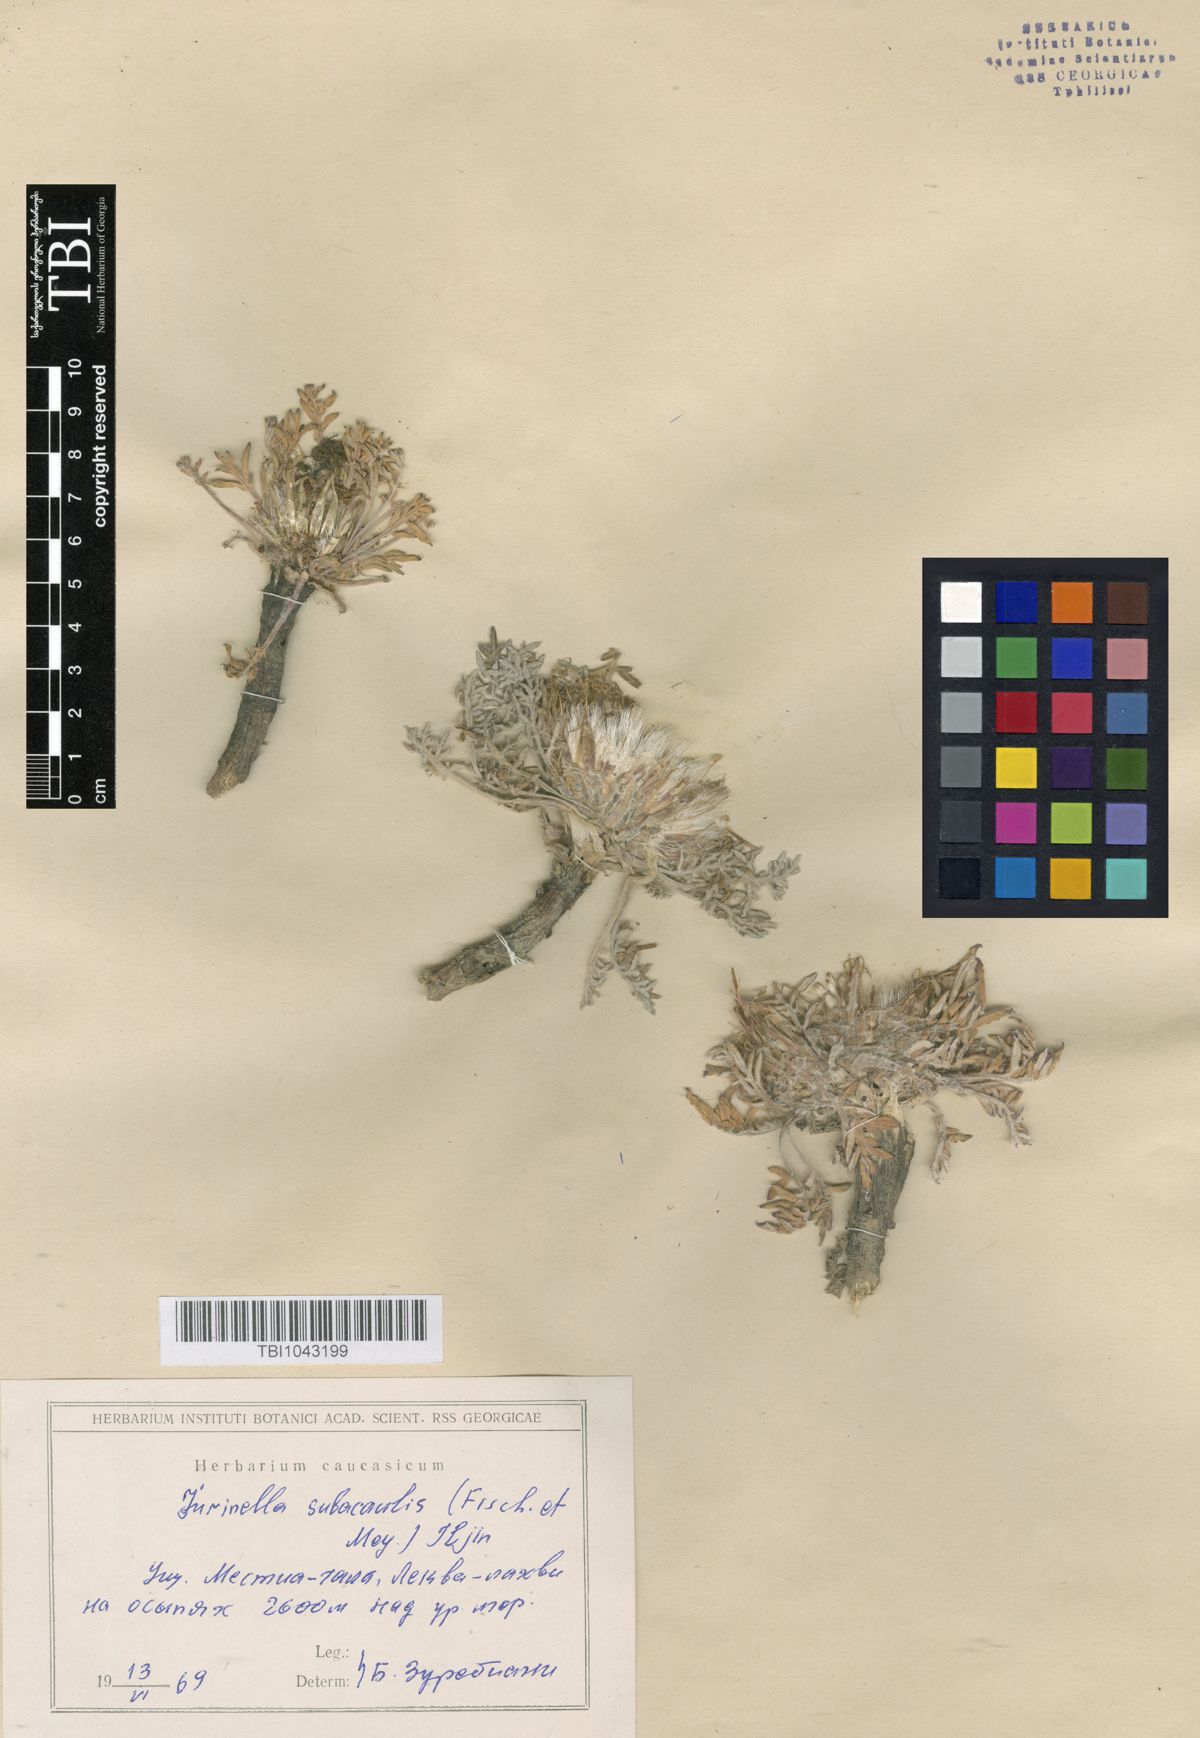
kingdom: Plantae
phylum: Tracheophyta
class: Magnoliopsida
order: Asterales
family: Asteraceae
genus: Jurinea
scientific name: Jurinea moschus
